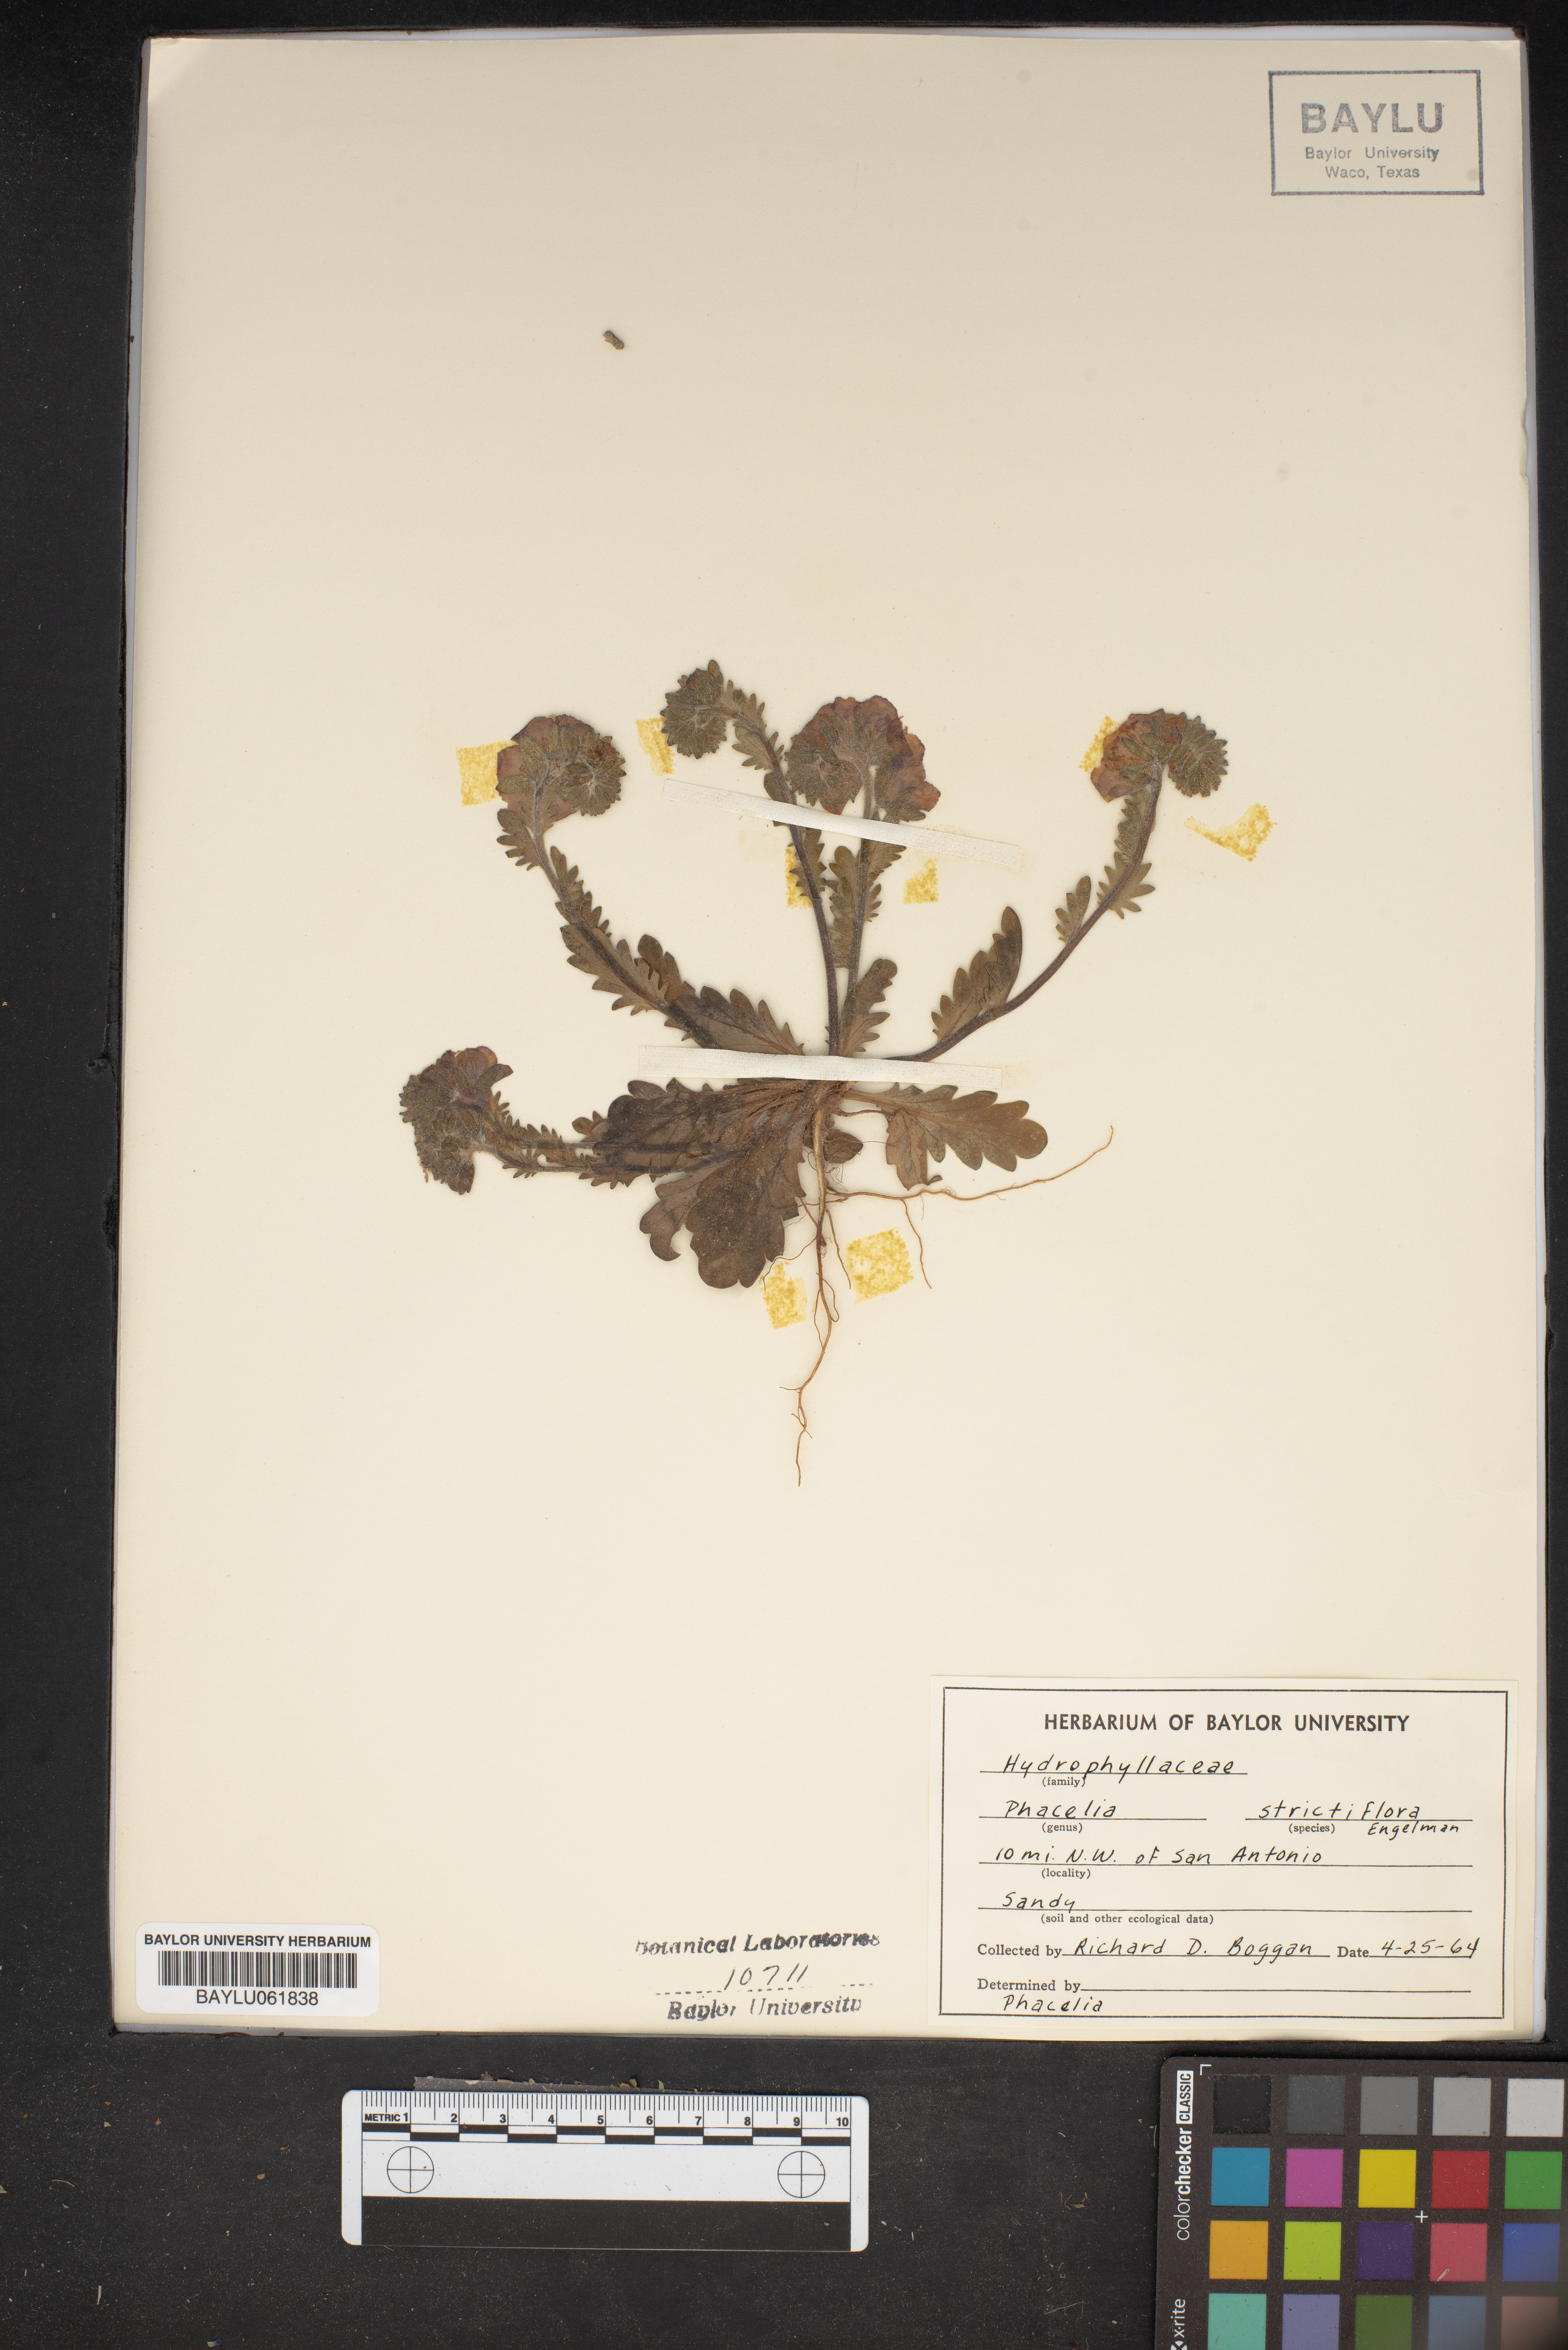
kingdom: Plantae
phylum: Tracheophyta
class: Magnoliopsida
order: Boraginales
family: Hydrophyllaceae
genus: Phacelia
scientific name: Phacelia strictiflora
